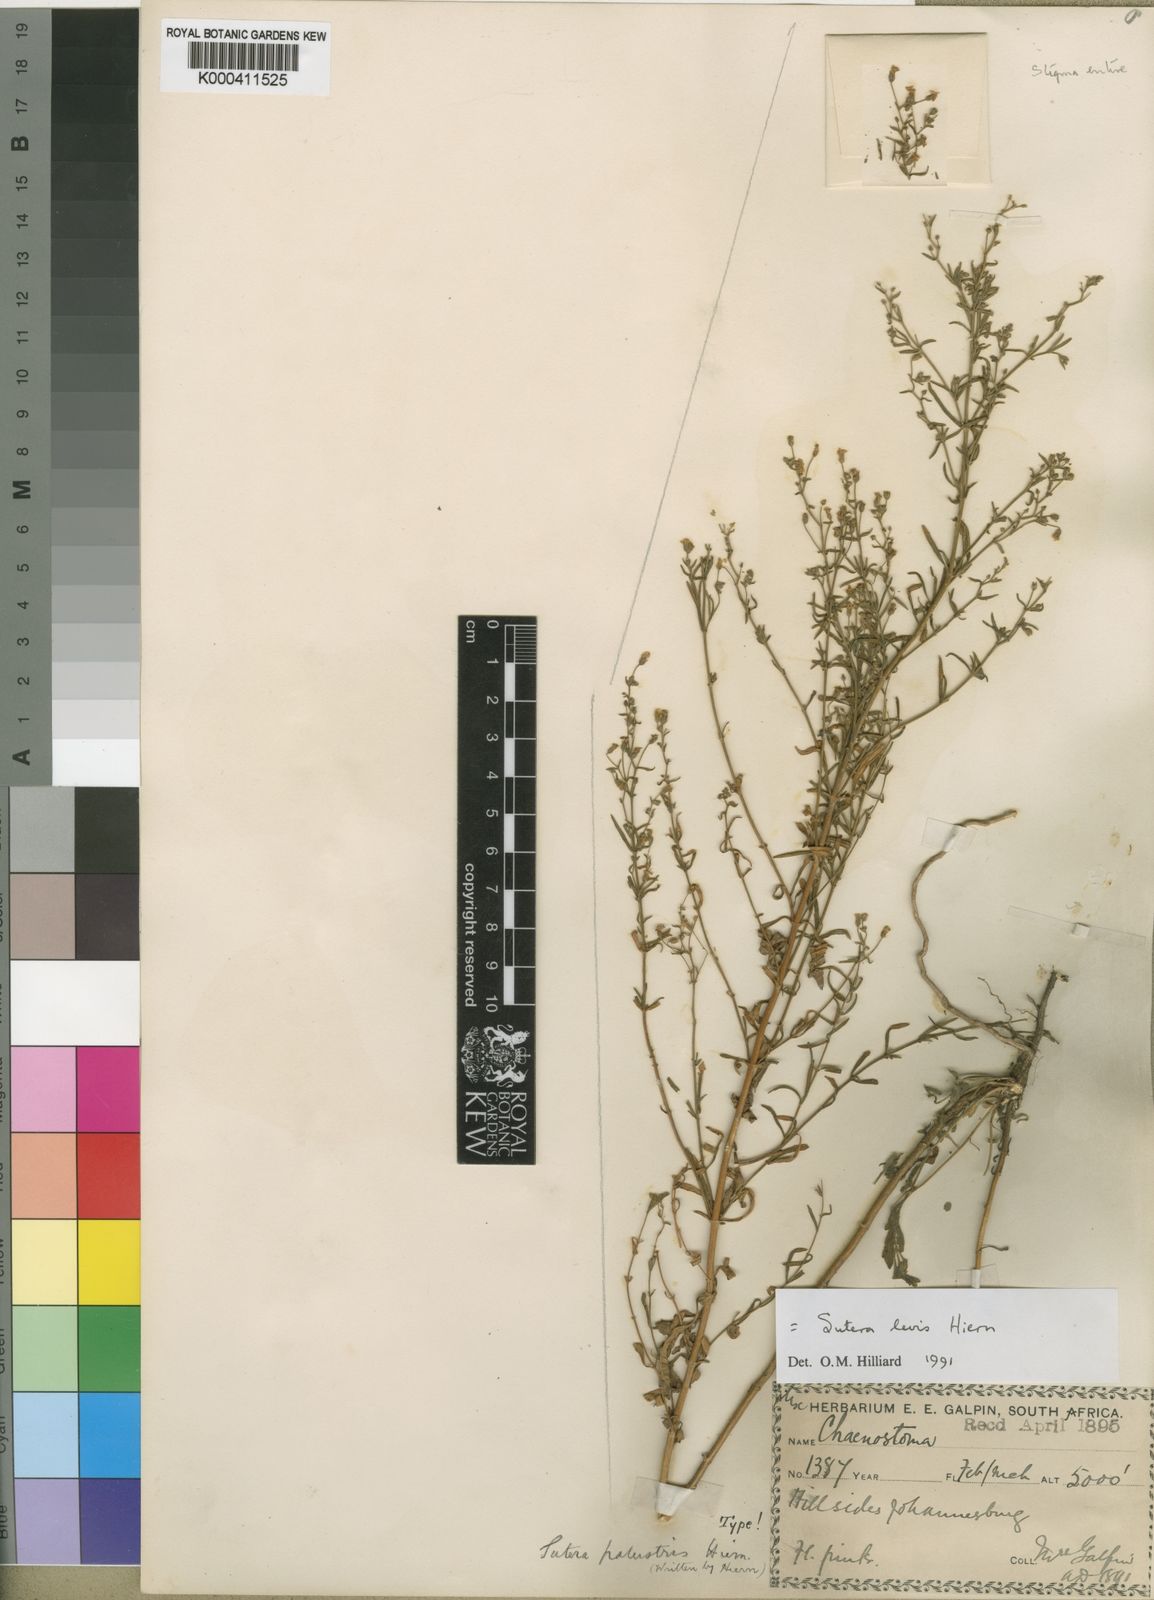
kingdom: Plantae
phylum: Tracheophyta
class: Magnoliopsida
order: Lamiales
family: Scrophulariaceae
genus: Chaenostoma
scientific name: Chaenostoma leve
